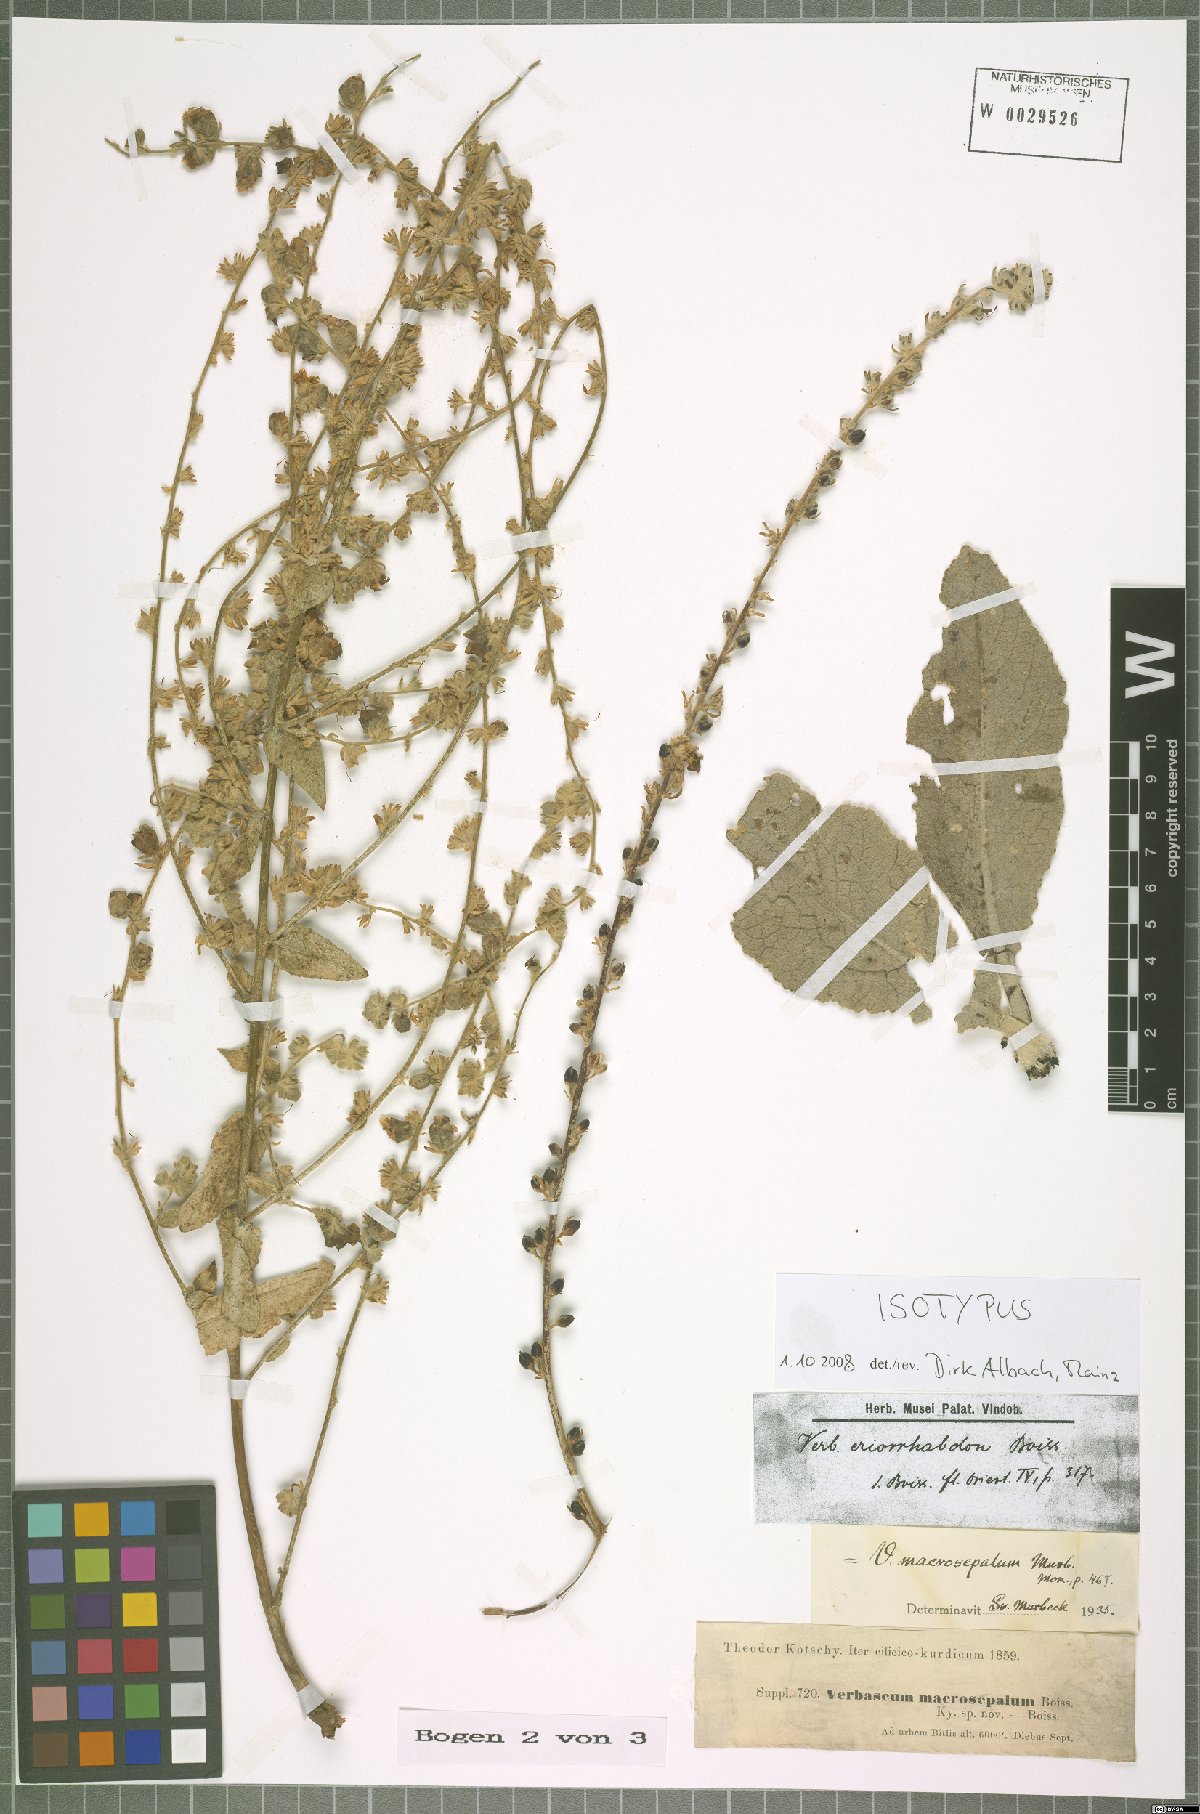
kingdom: Plantae
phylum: Tracheophyta
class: Magnoliopsida
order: Lamiales
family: Scrophulariaceae
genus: Verbascum
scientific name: Verbascum macrosepalum
